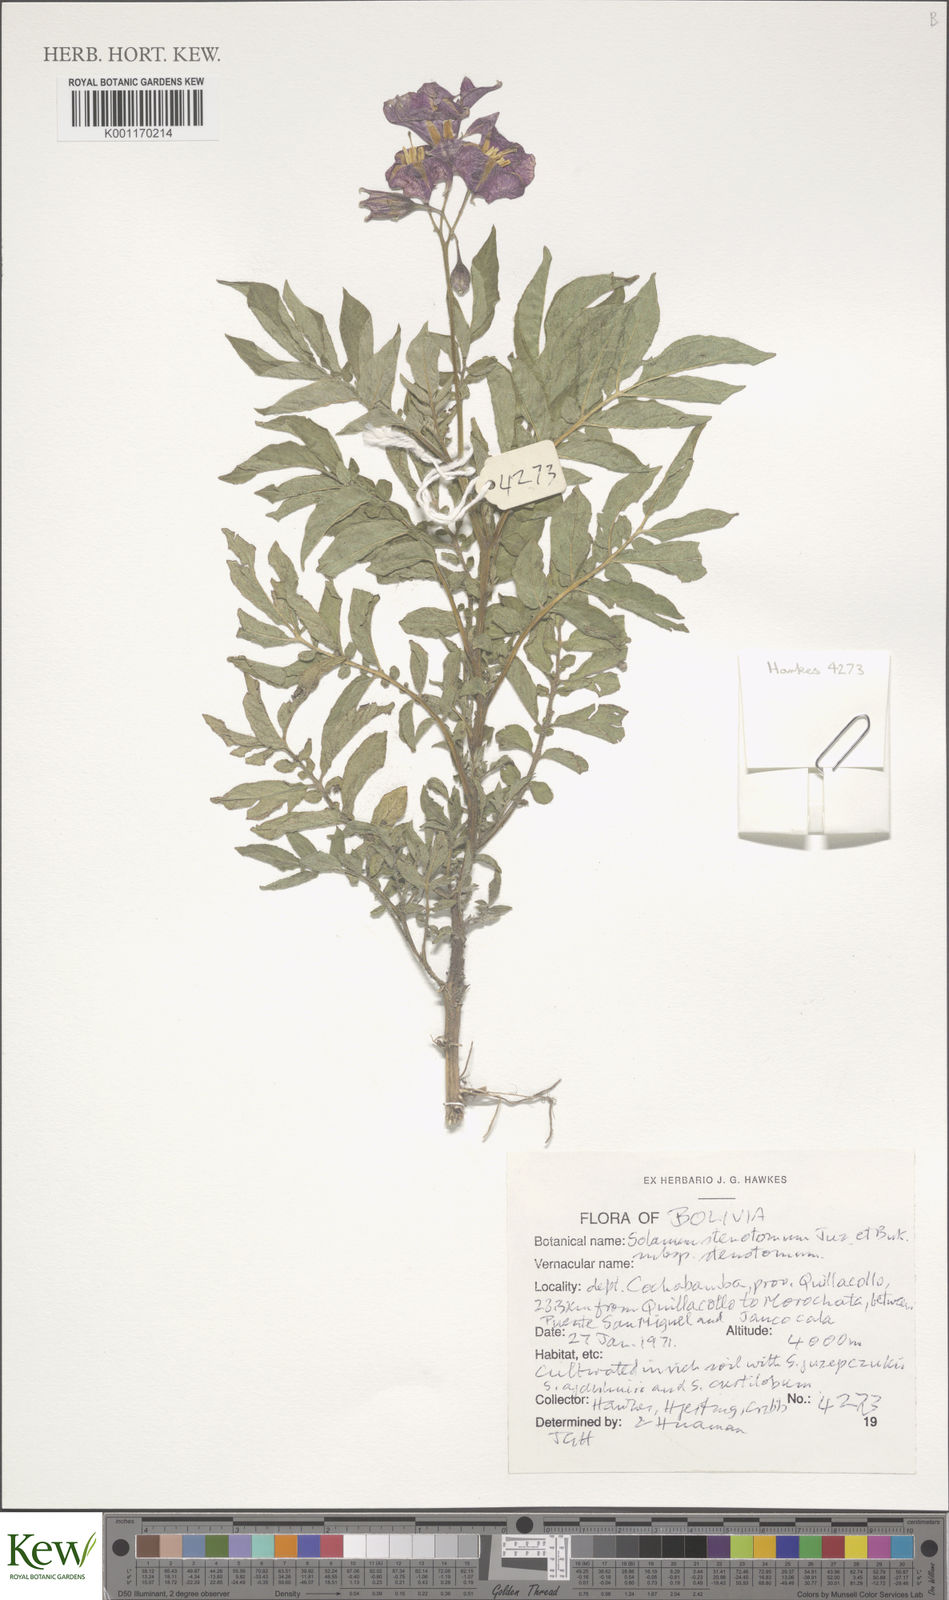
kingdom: Plantae
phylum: Tracheophyta
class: Magnoliopsida
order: Solanales
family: Solanaceae
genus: Solanum
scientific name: Solanum tuberosum
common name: Potato
